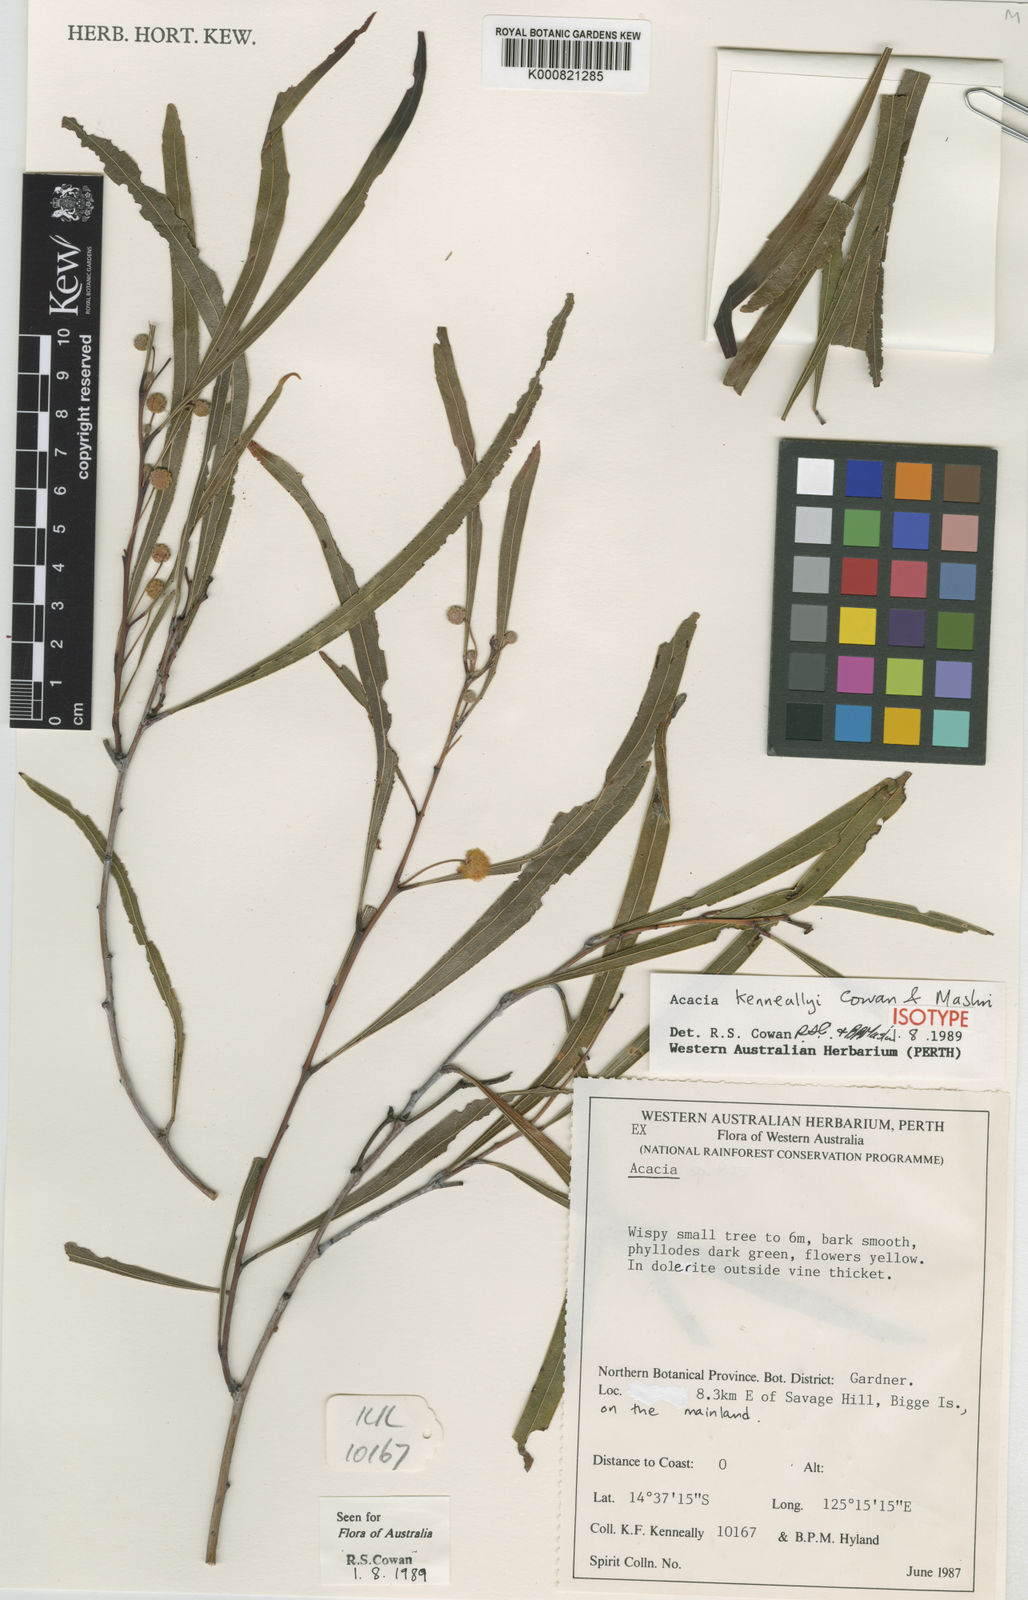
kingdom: Plantae
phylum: Tracheophyta
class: Magnoliopsida
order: Fabales
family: Fabaceae
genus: Acacia
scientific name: Acacia kenneallyi
